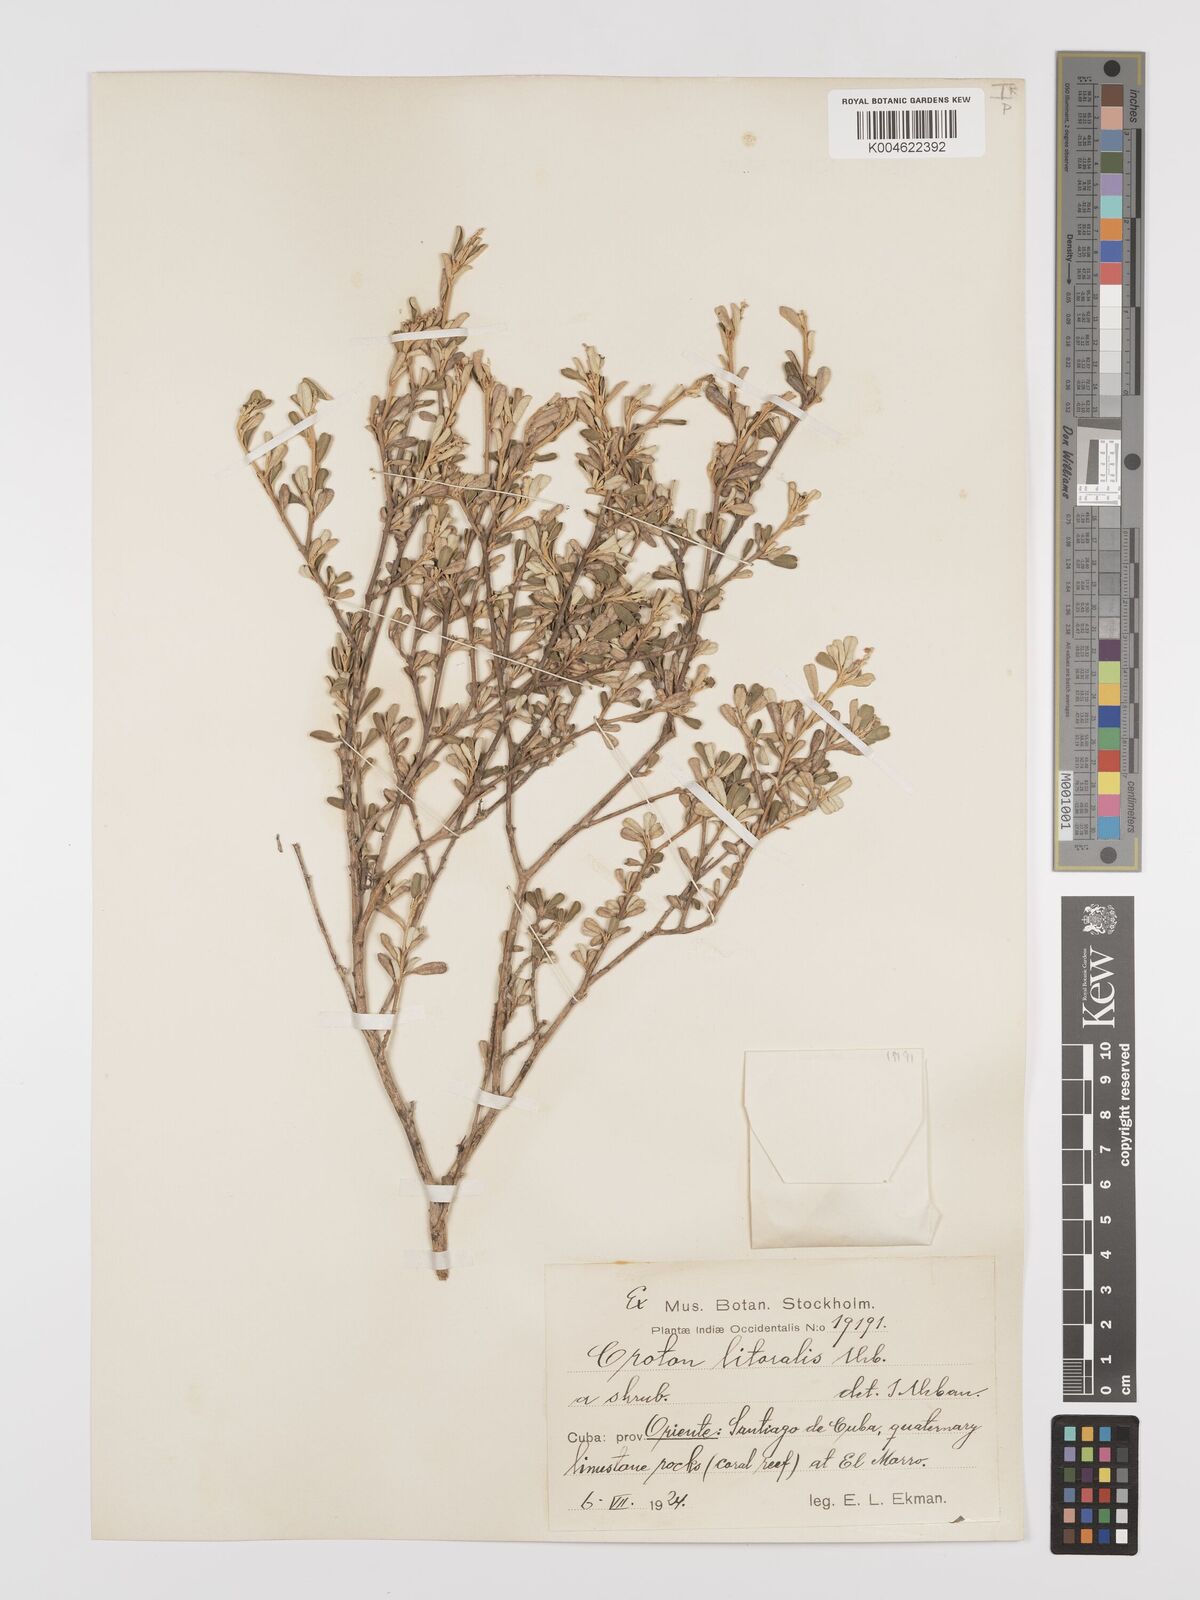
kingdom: Plantae
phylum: Tracheophyta
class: Magnoliopsida
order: Malpighiales
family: Euphorbiaceae
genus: Croton
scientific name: Croton stenophyllus
